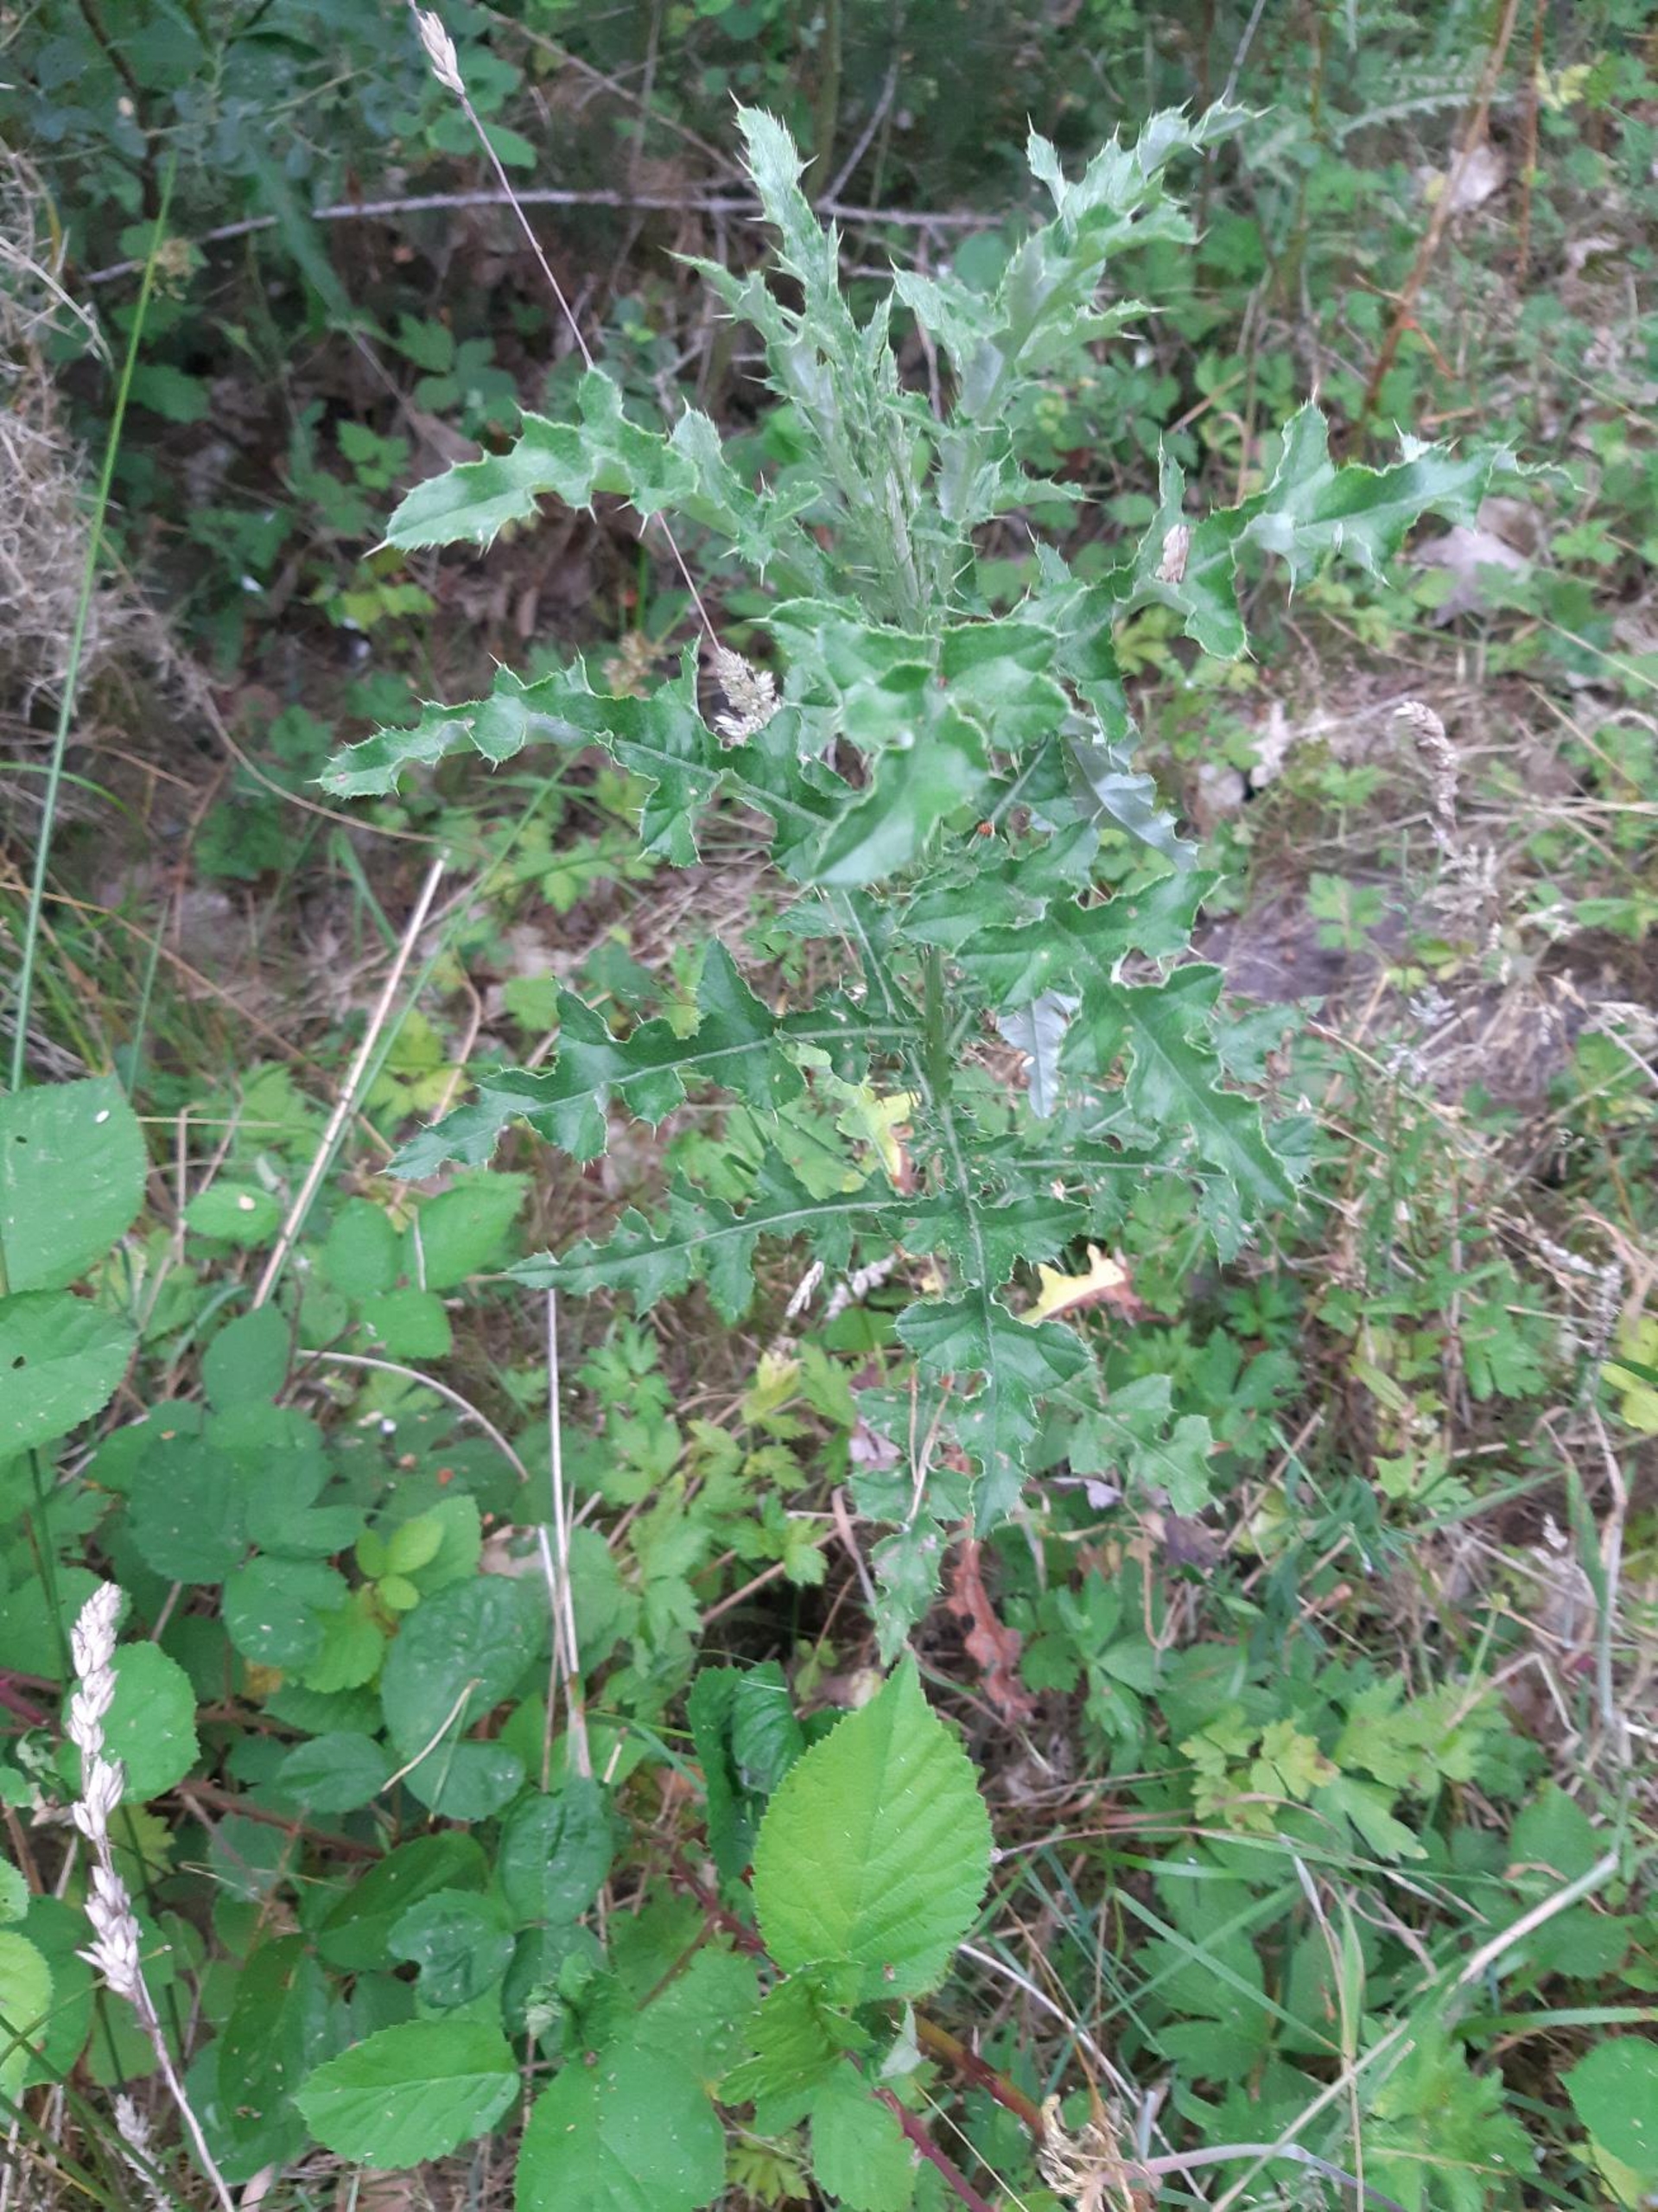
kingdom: Plantae
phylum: Tracheophyta
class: Magnoliopsida
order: Asterales
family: Asteraceae
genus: Cirsium
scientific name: Cirsium arvense
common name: Ager-tidsel
